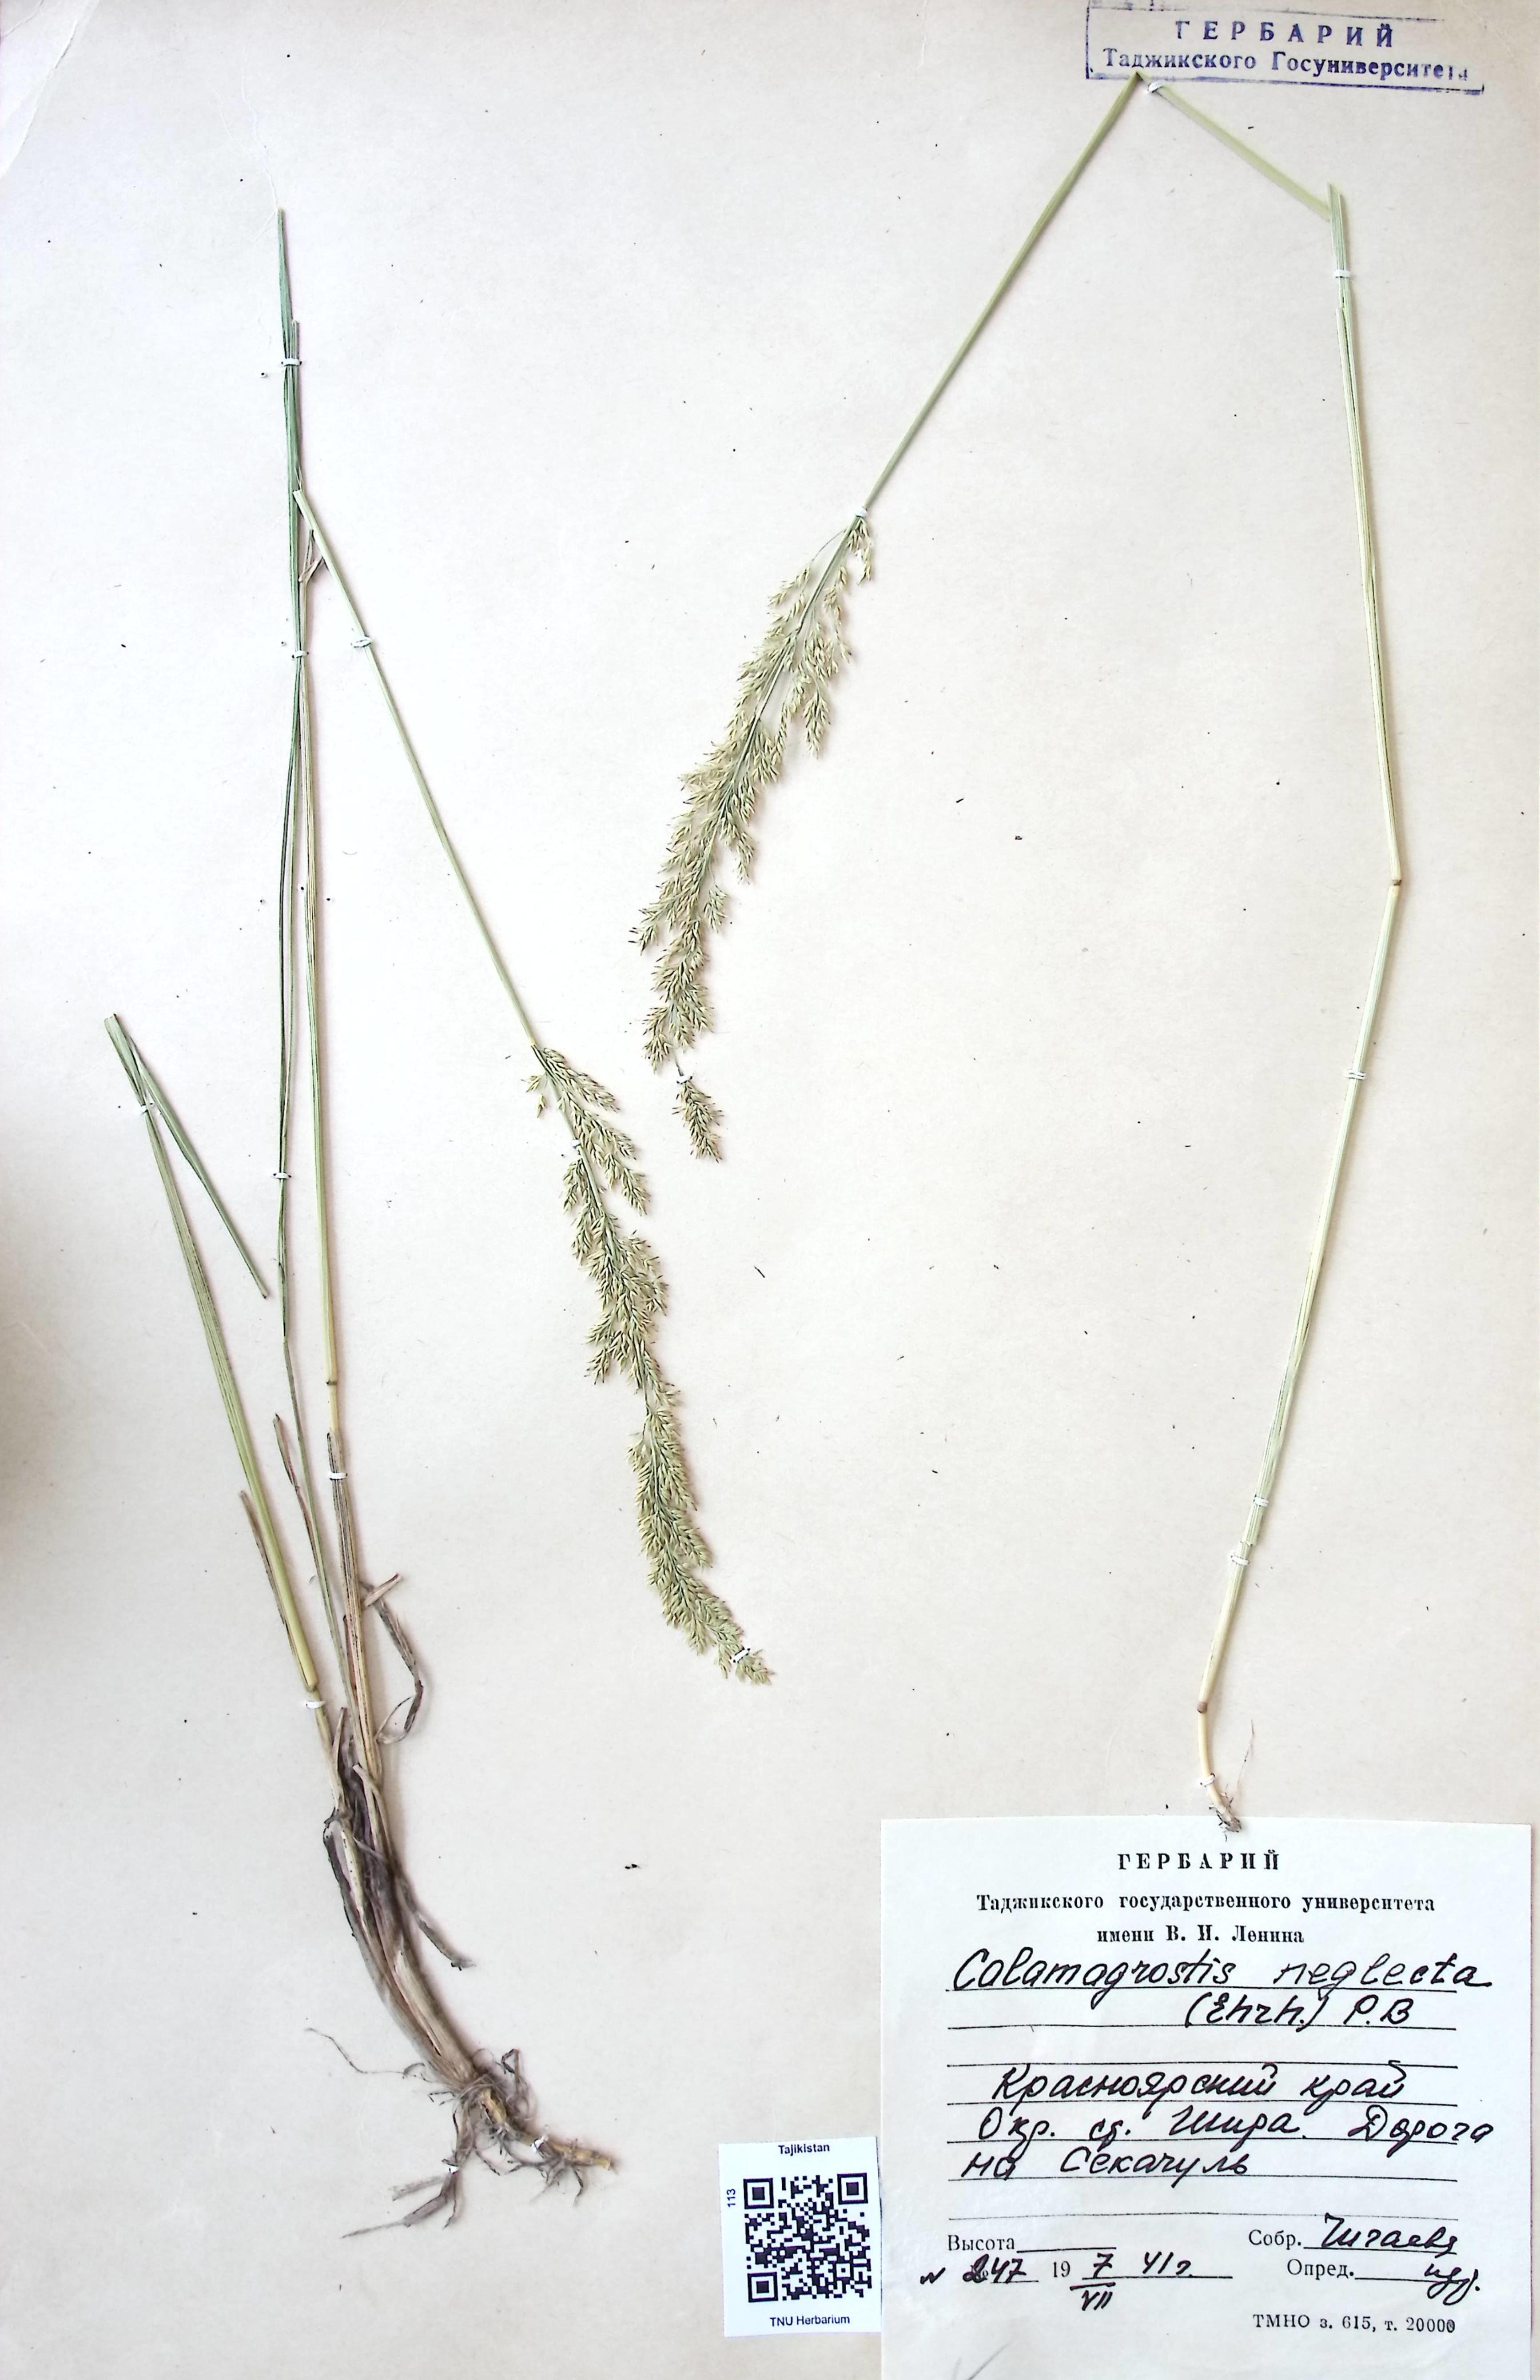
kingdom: Plantae
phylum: Tracheophyta
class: Liliopsida
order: Poales
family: Poaceae
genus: Achnatherum
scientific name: Achnatherum calamagrostis
